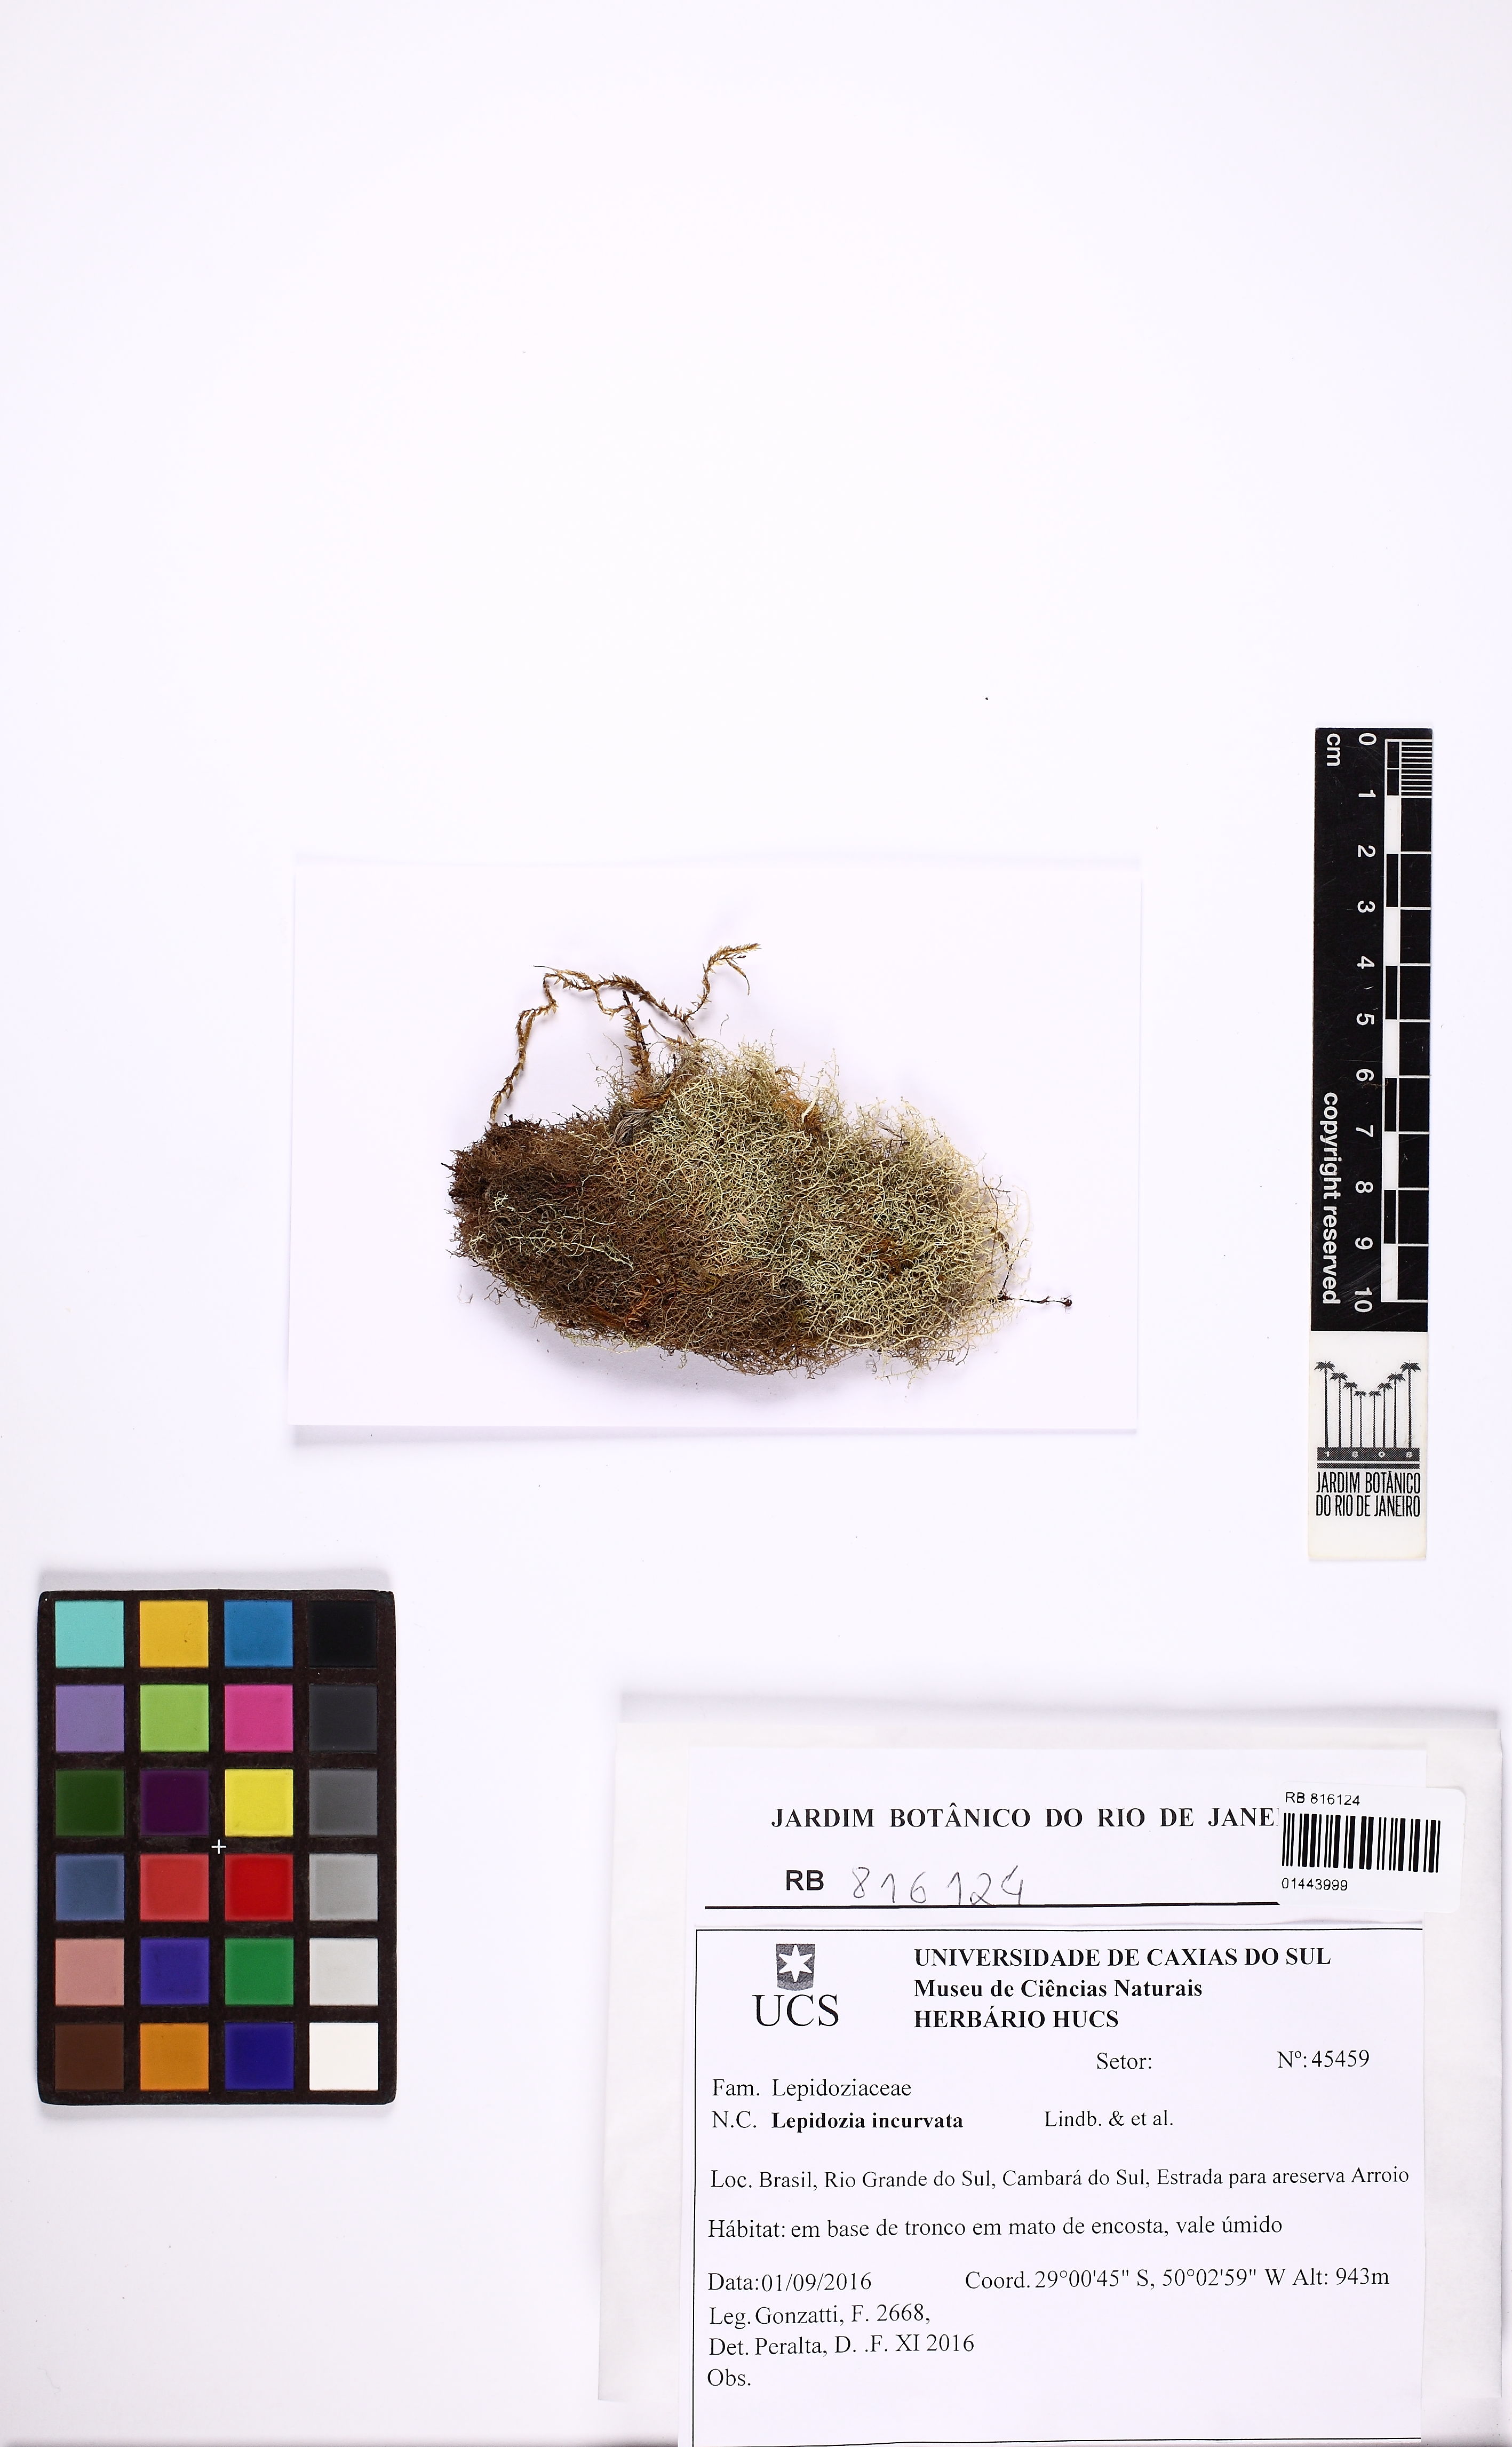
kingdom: Plantae
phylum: Marchantiophyta
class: Jungermanniopsida
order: Jungermanniales
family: Lepidoziaceae
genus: Lepidozia
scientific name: Lepidozia incurvata
